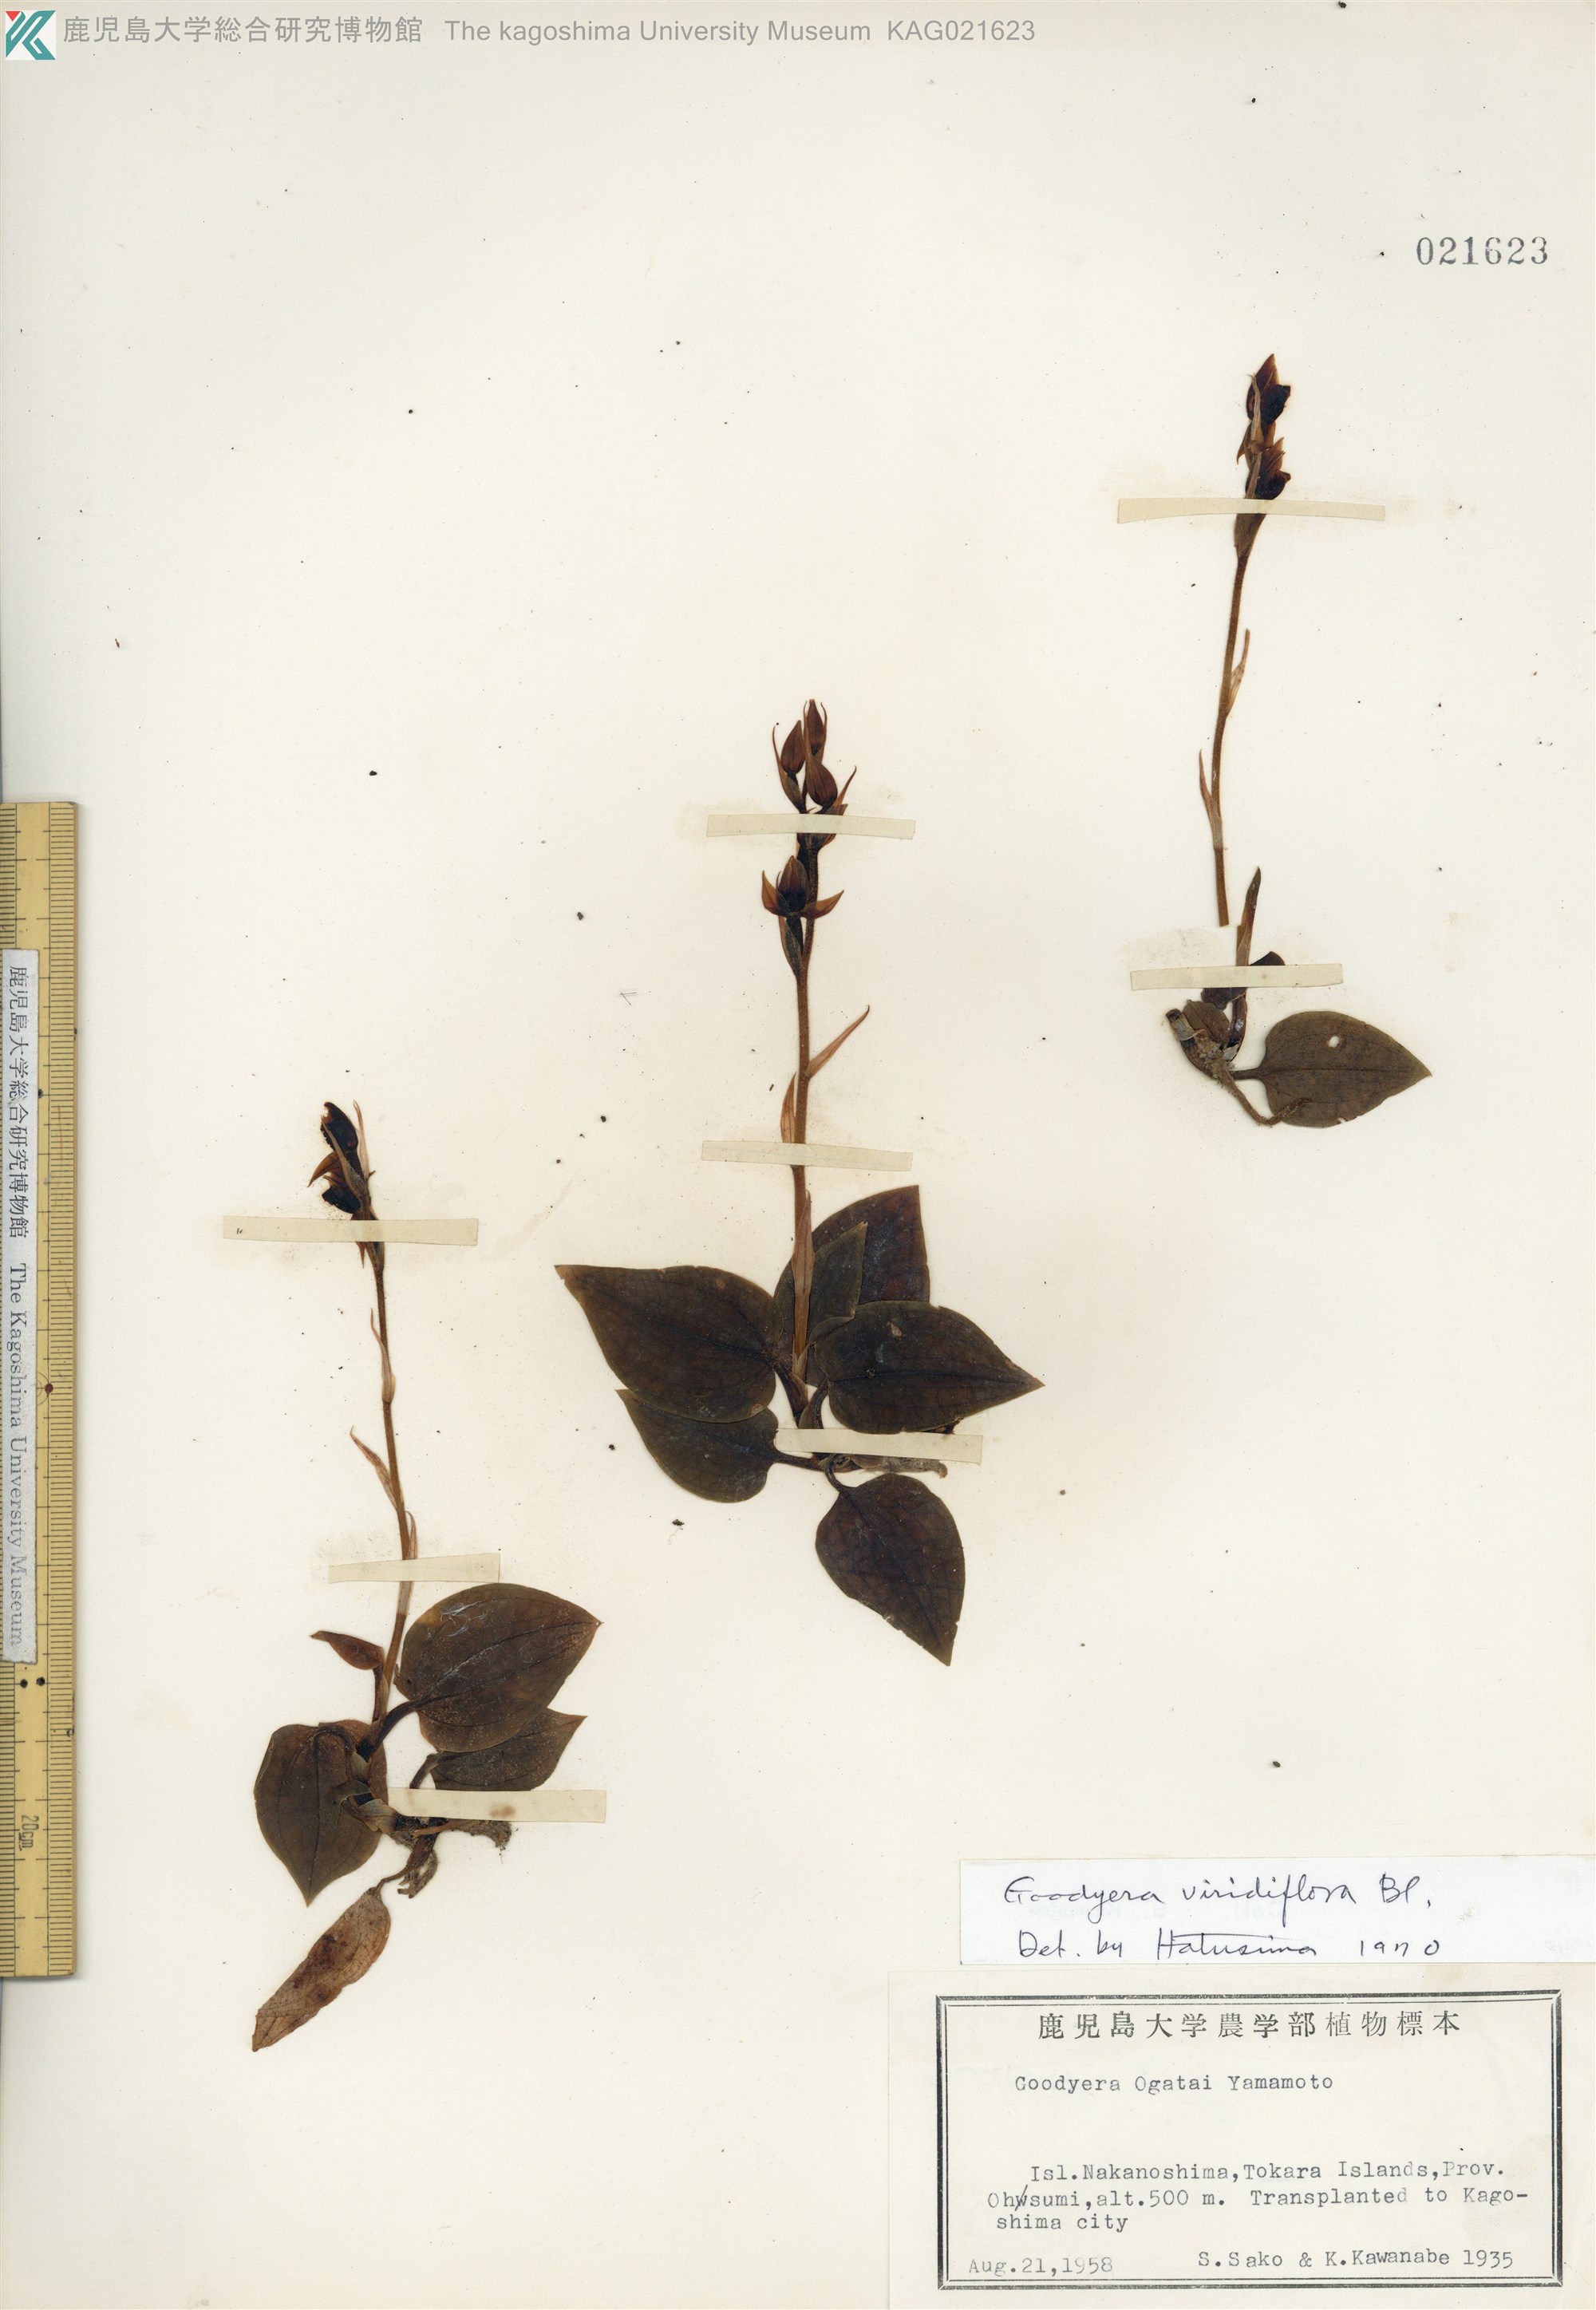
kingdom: Plantae
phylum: Tracheophyta
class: Liliopsida
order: Asparagales
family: Orchidaceae
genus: Goodyera
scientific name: Goodyera viridiflora
